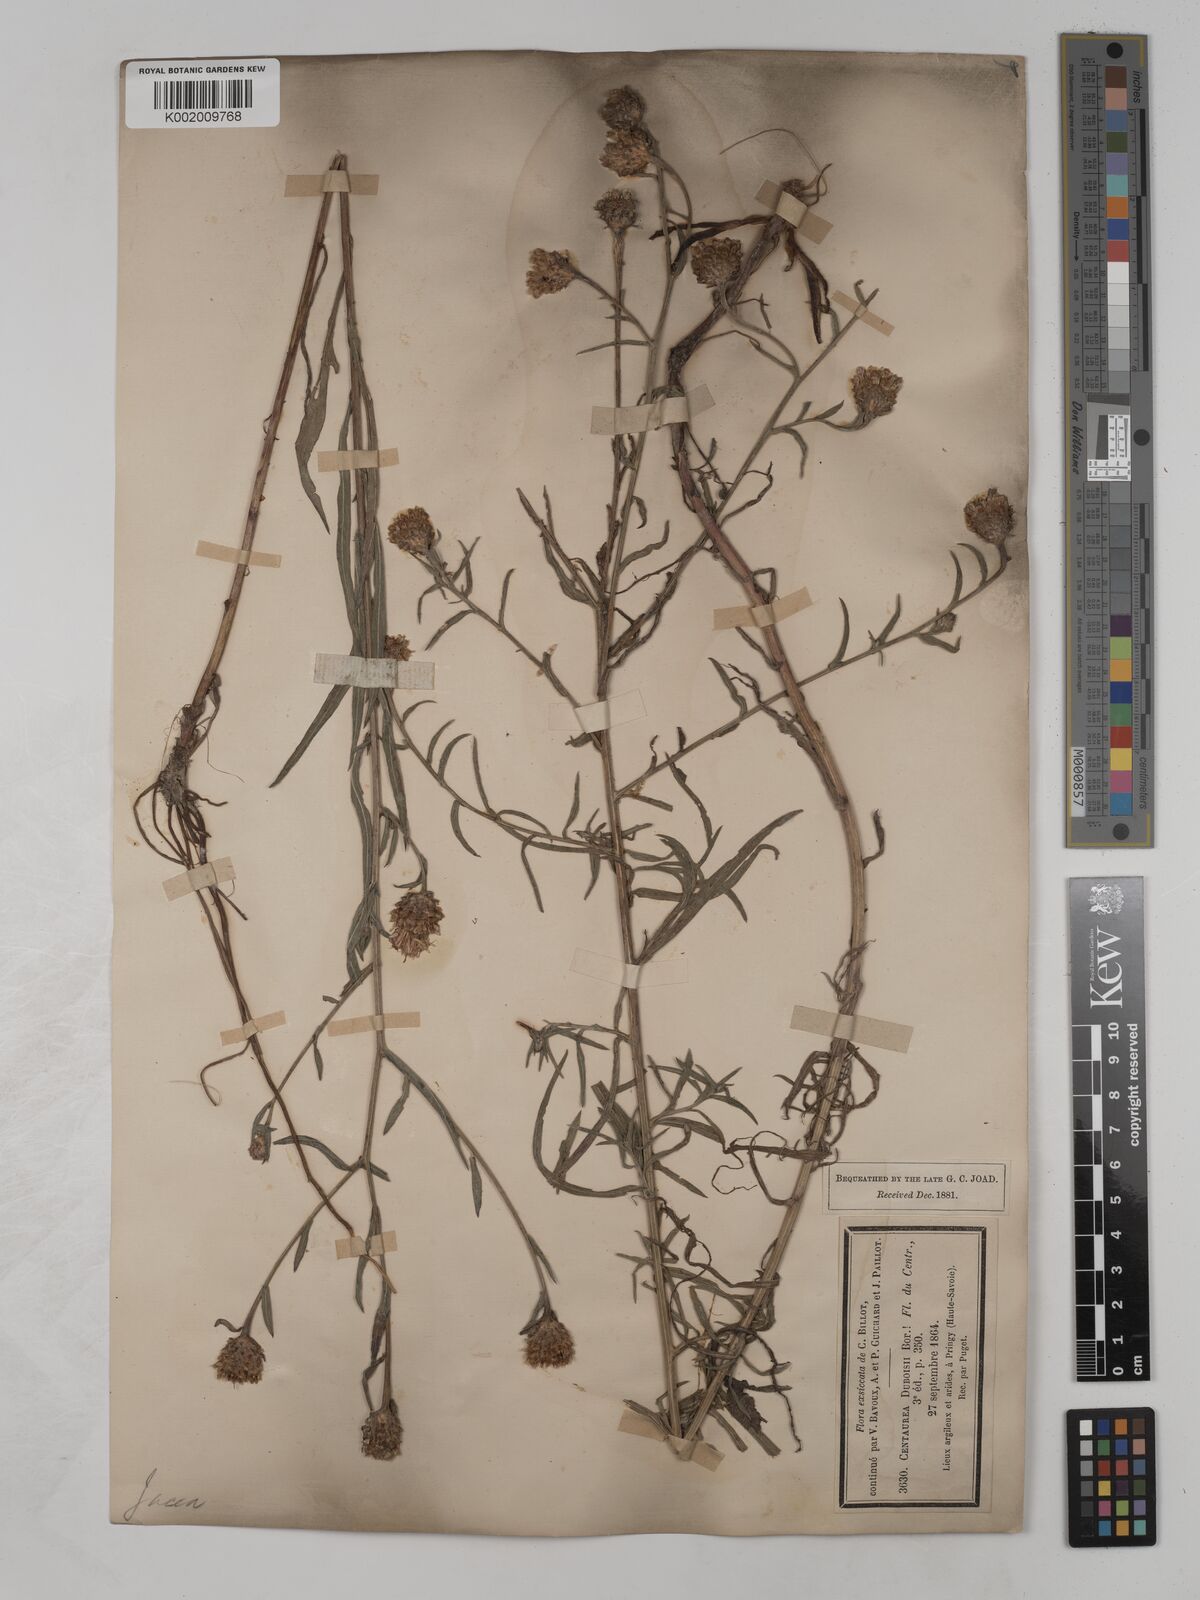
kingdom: Plantae
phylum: Tracheophyta
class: Magnoliopsida
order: Asterales
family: Asteraceae
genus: Centaurea
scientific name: Centaurea timbalii
